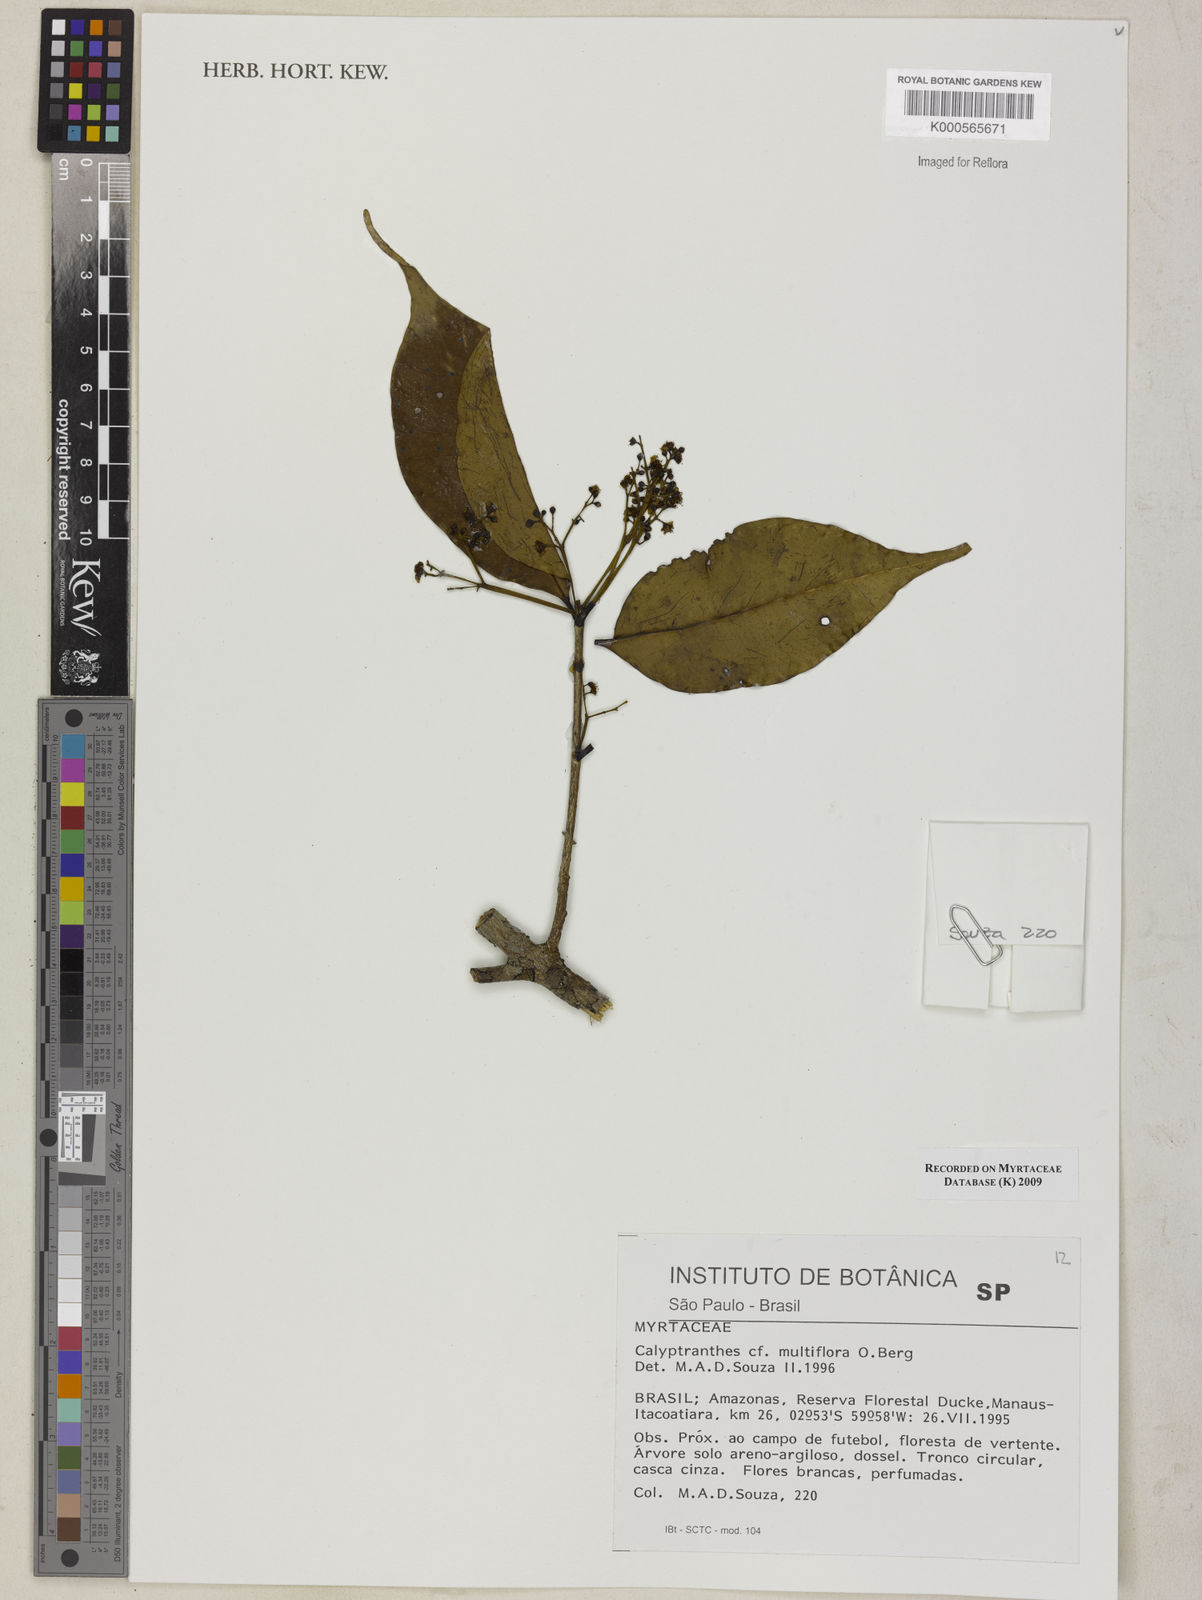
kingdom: Plantae
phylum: Tracheophyta
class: Magnoliopsida
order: Myrtales
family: Myrtaceae
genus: Myrcia
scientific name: Myrcia aulomyrcioides
